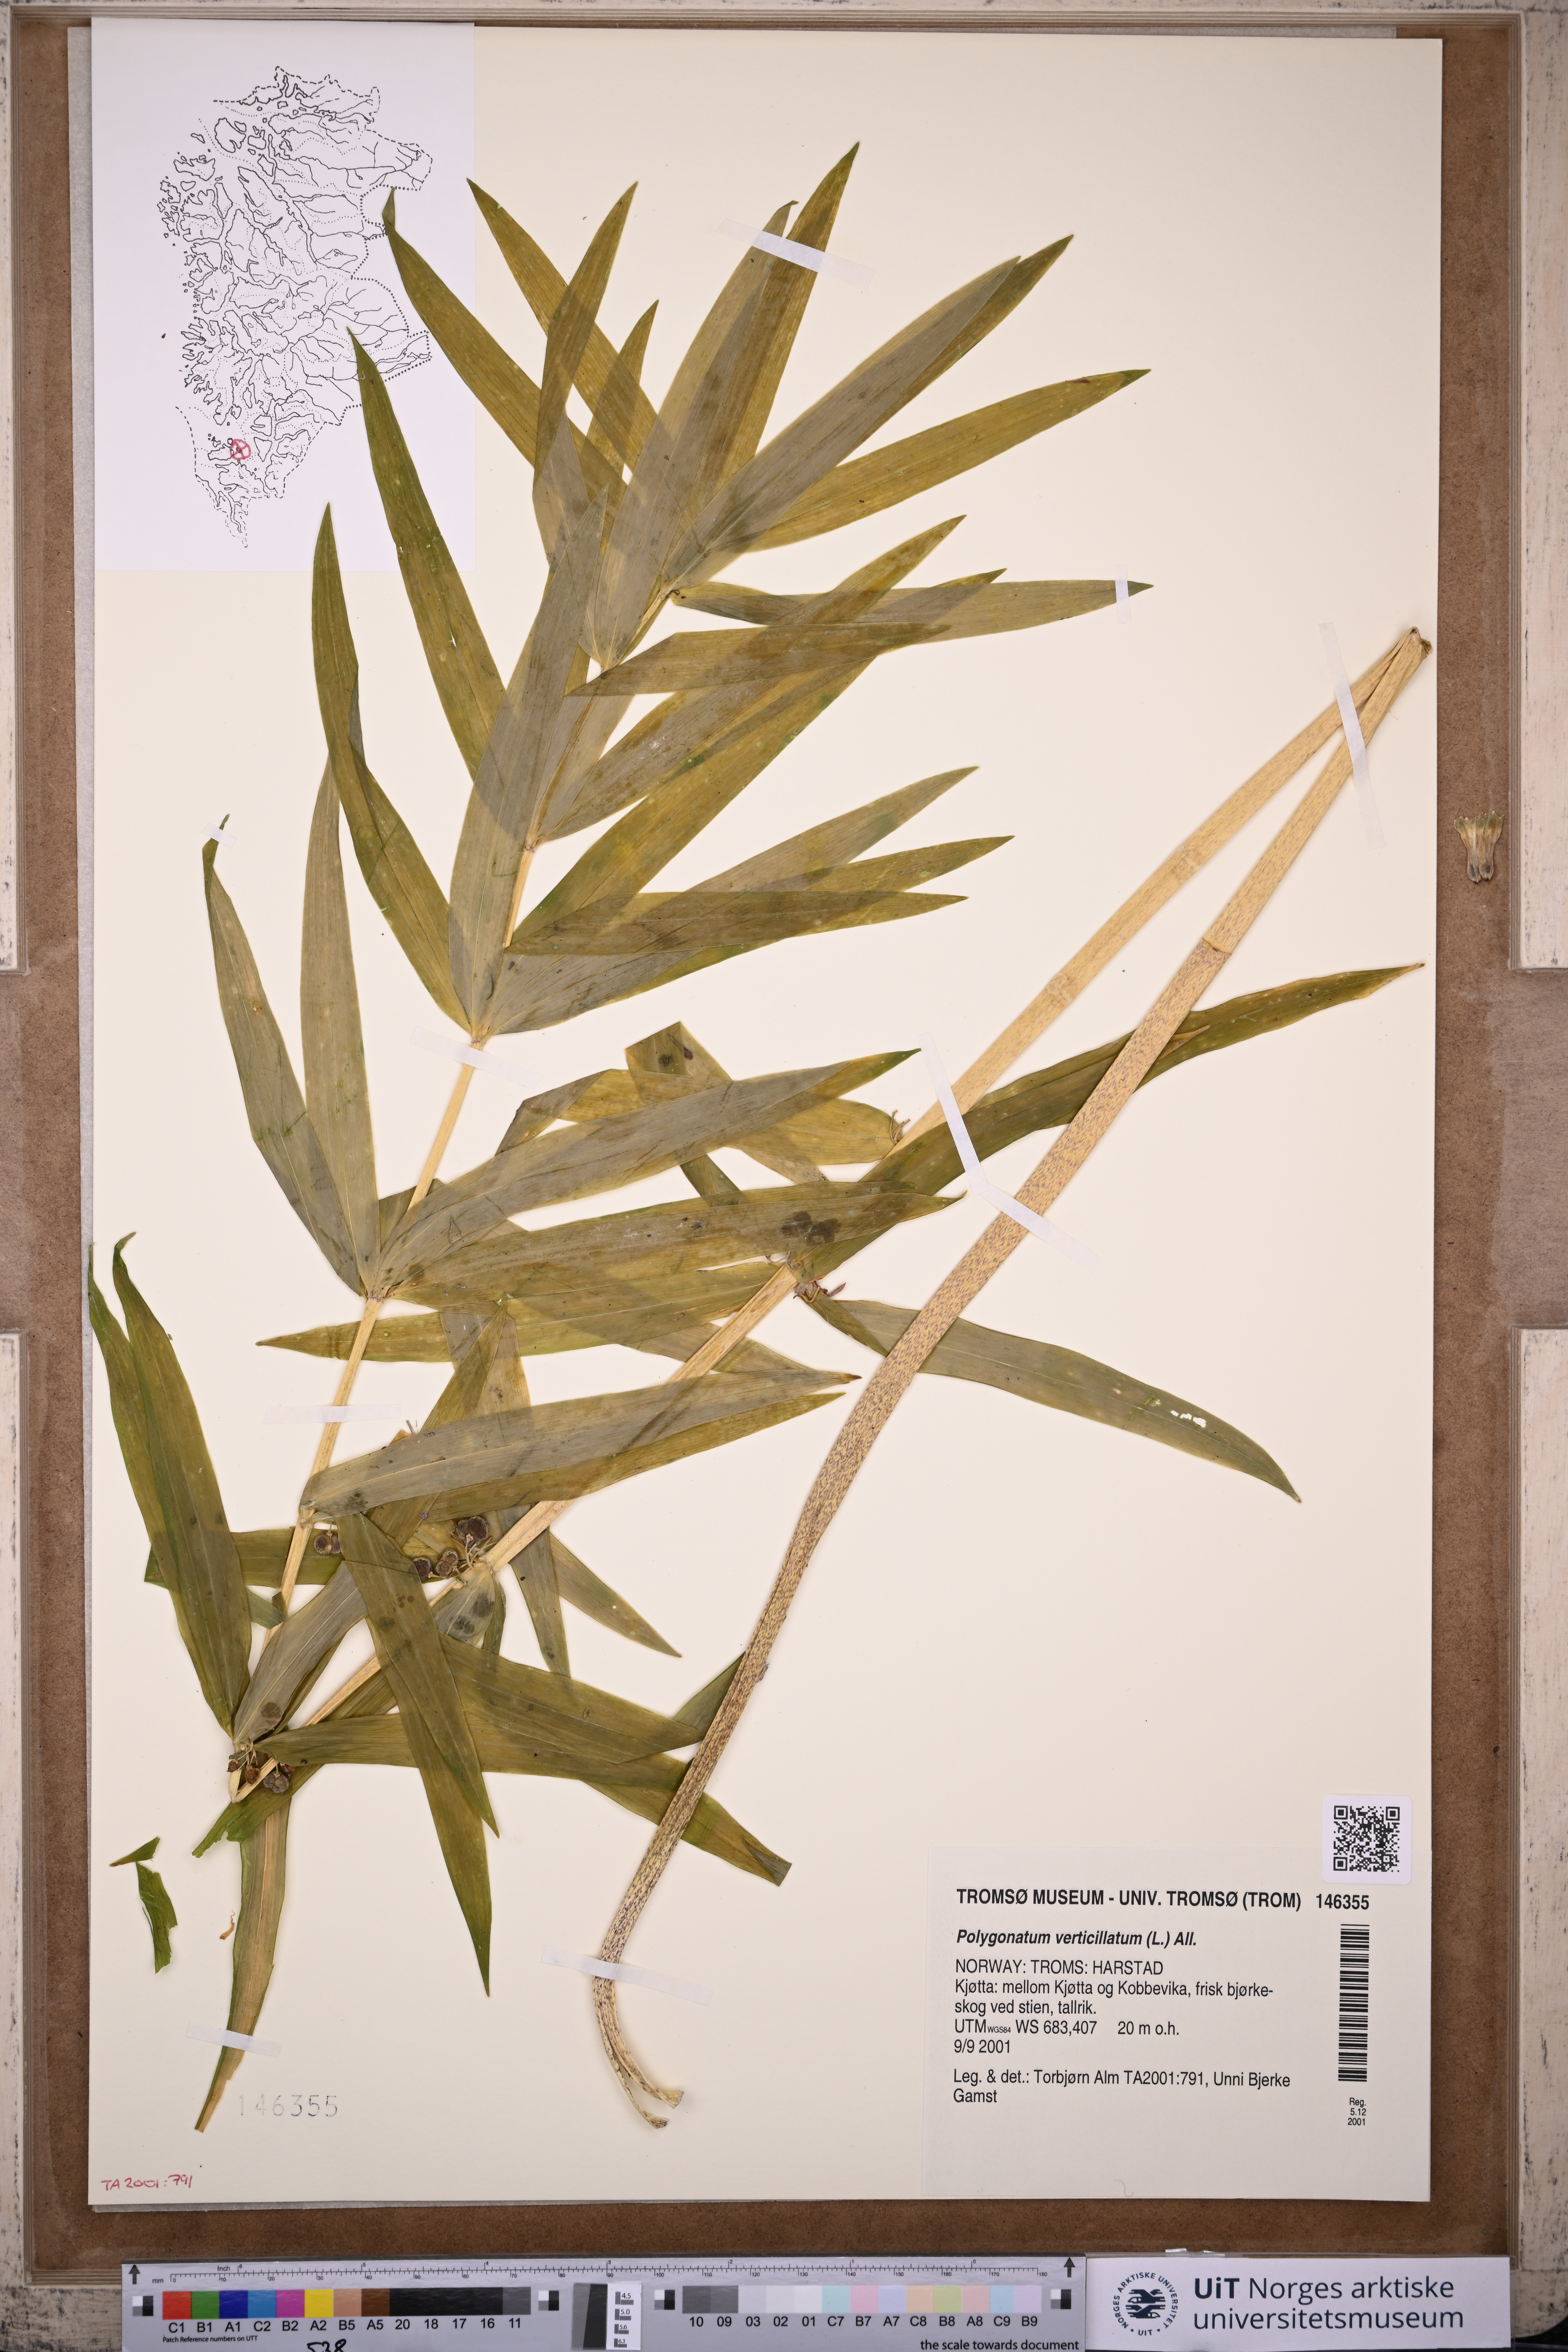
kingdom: Plantae
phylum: Tracheophyta
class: Liliopsida
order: Asparagales
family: Asparagaceae
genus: Polygonatum
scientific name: Polygonatum verticillatum
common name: Whorled solomon's-seal
